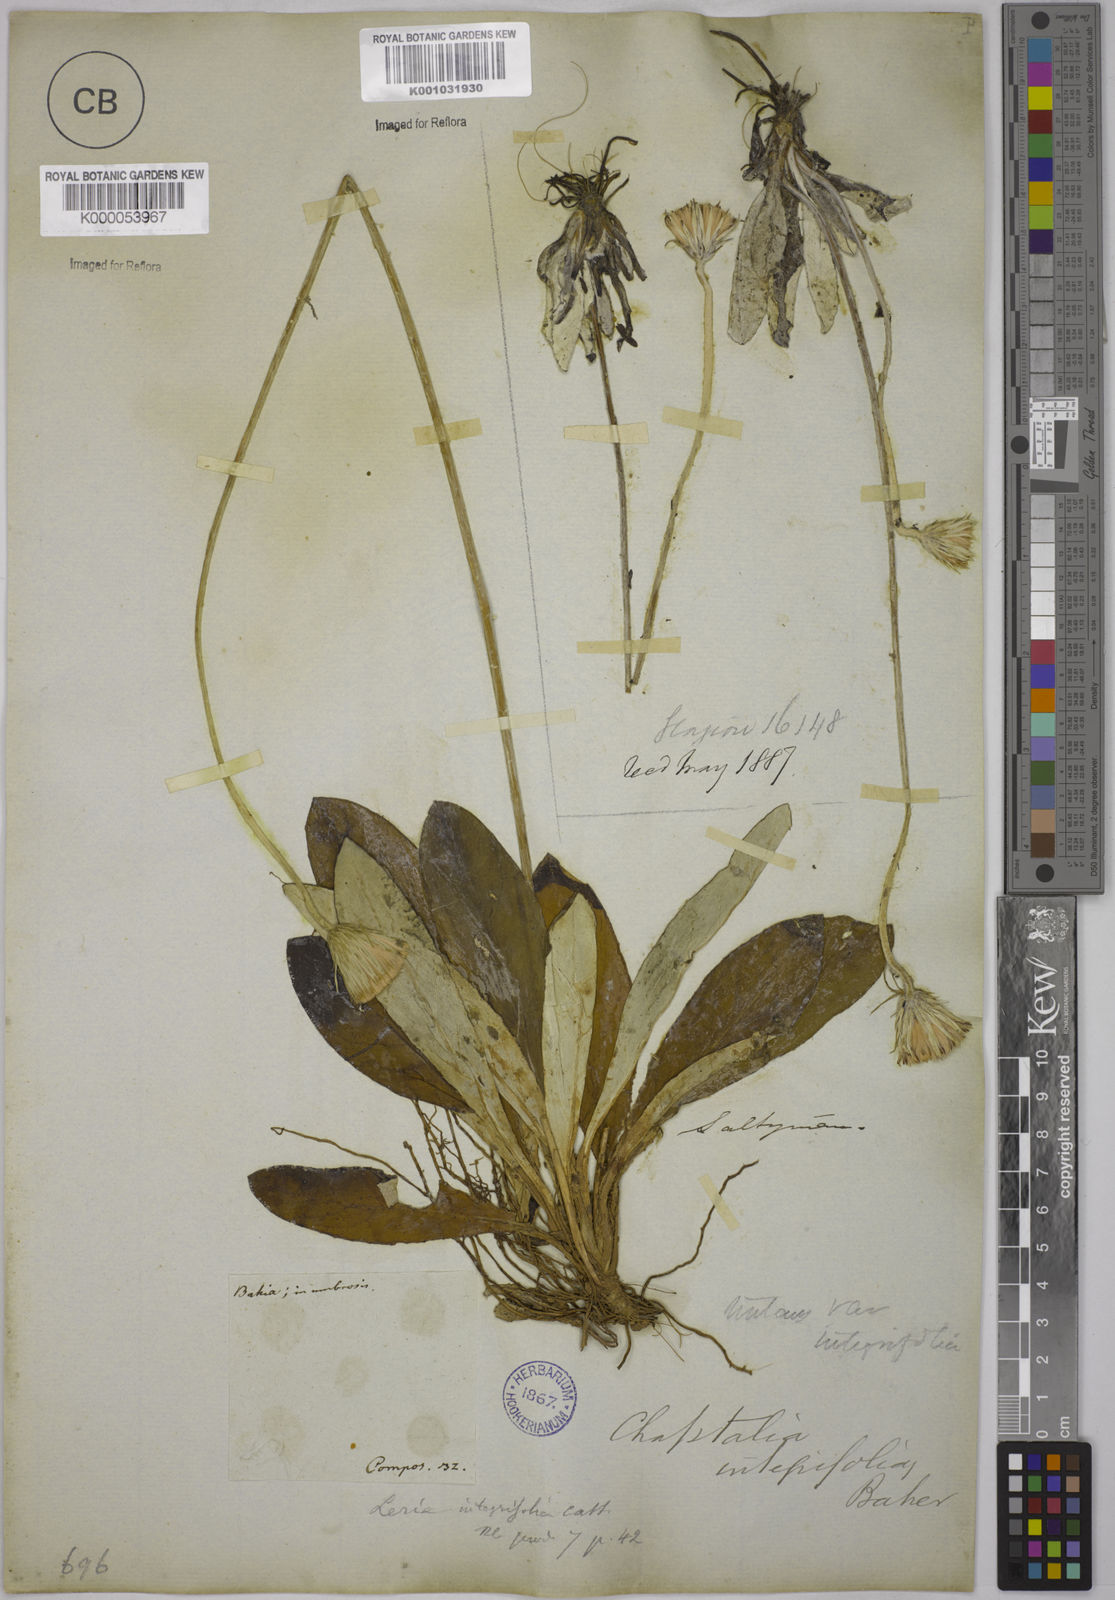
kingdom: Plantae
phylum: Tracheophyta
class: Magnoliopsida
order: Asterales
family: Asteraceae
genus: Chaptalia
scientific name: Chaptalia integerrima
